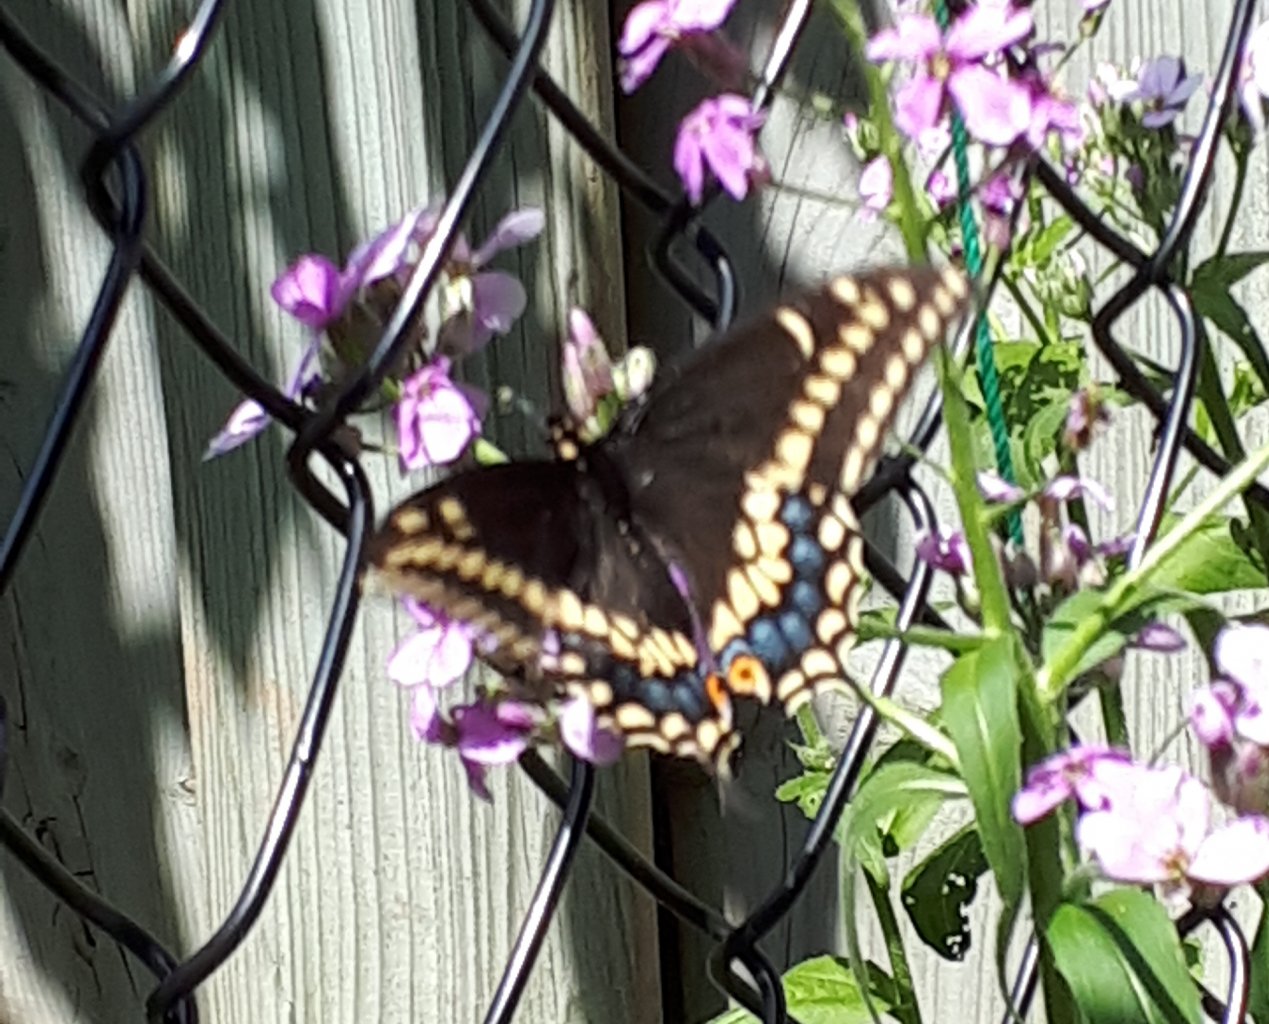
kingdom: Animalia
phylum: Arthropoda
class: Insecta
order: Lepidoptera
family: Papilionidae
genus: Papilio
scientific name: Papilio polyxenes
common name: Black Swallowtail
